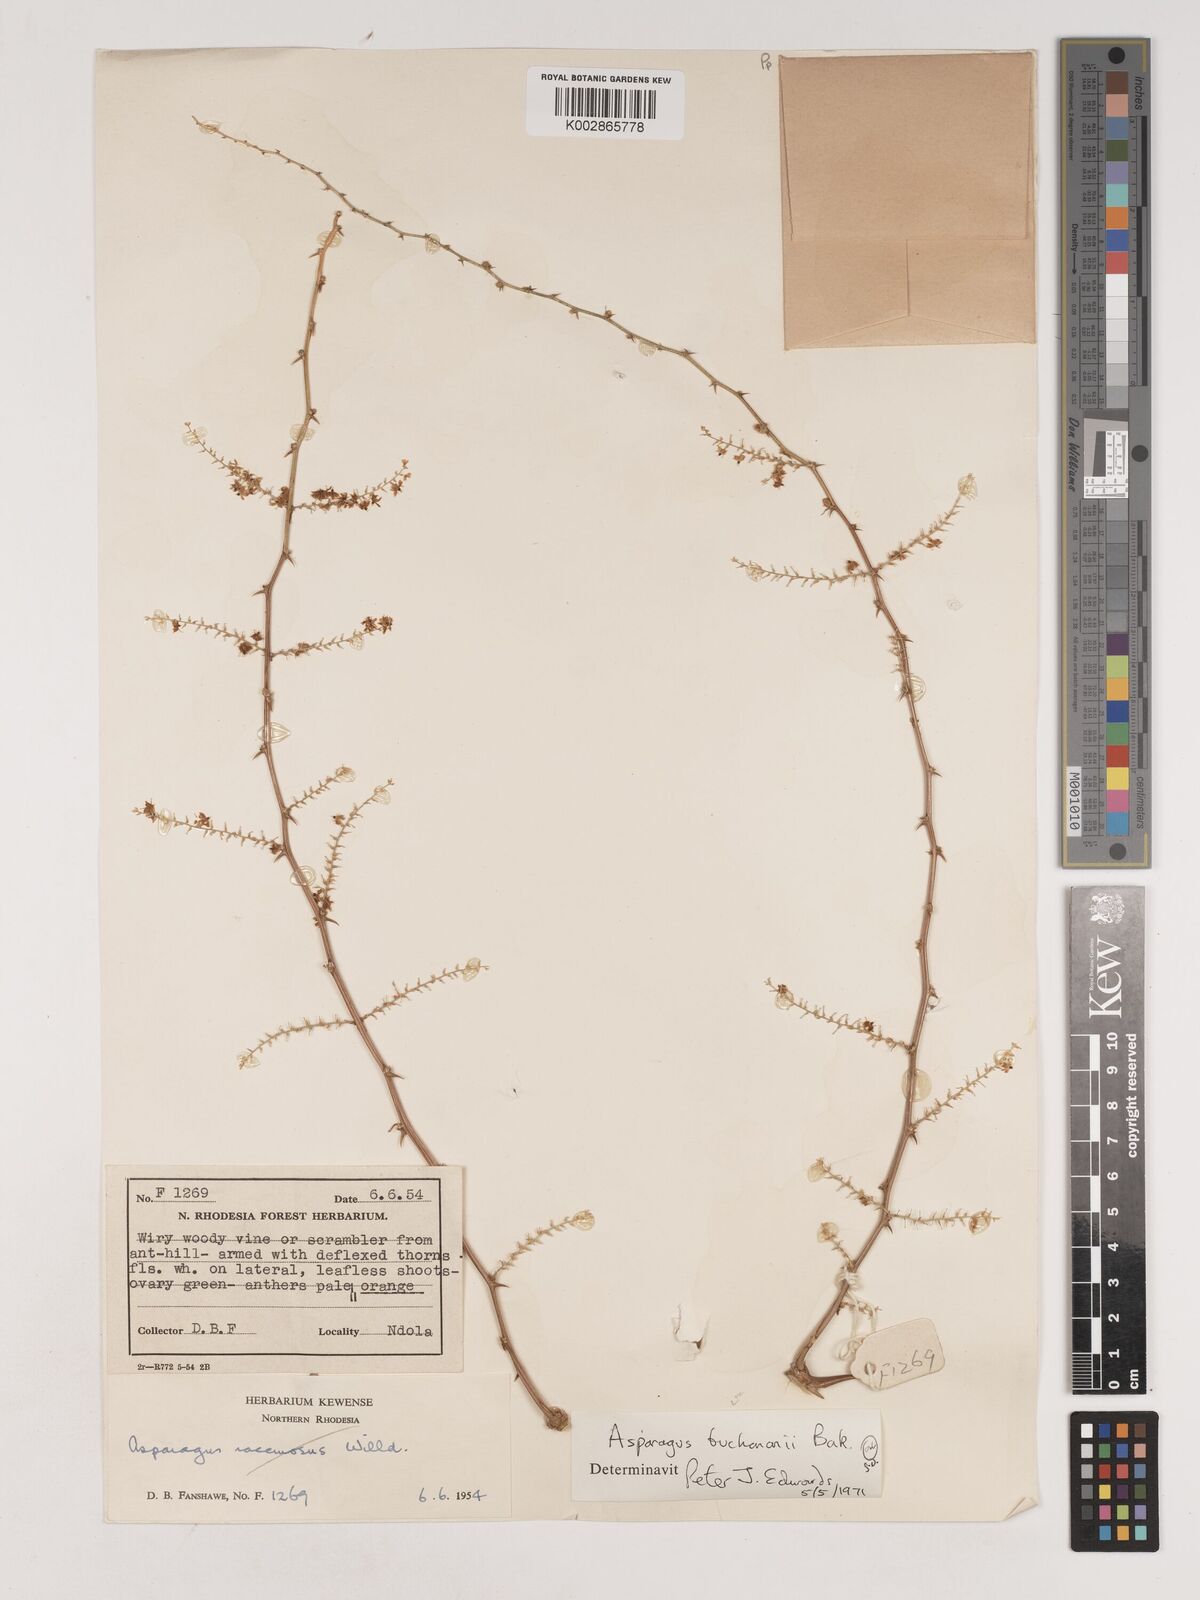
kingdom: Plantae
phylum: Tracheophyta
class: Liliopsida
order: Asparagales
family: Asparagaceae
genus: Asparagus
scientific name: Asparagus buchananii
